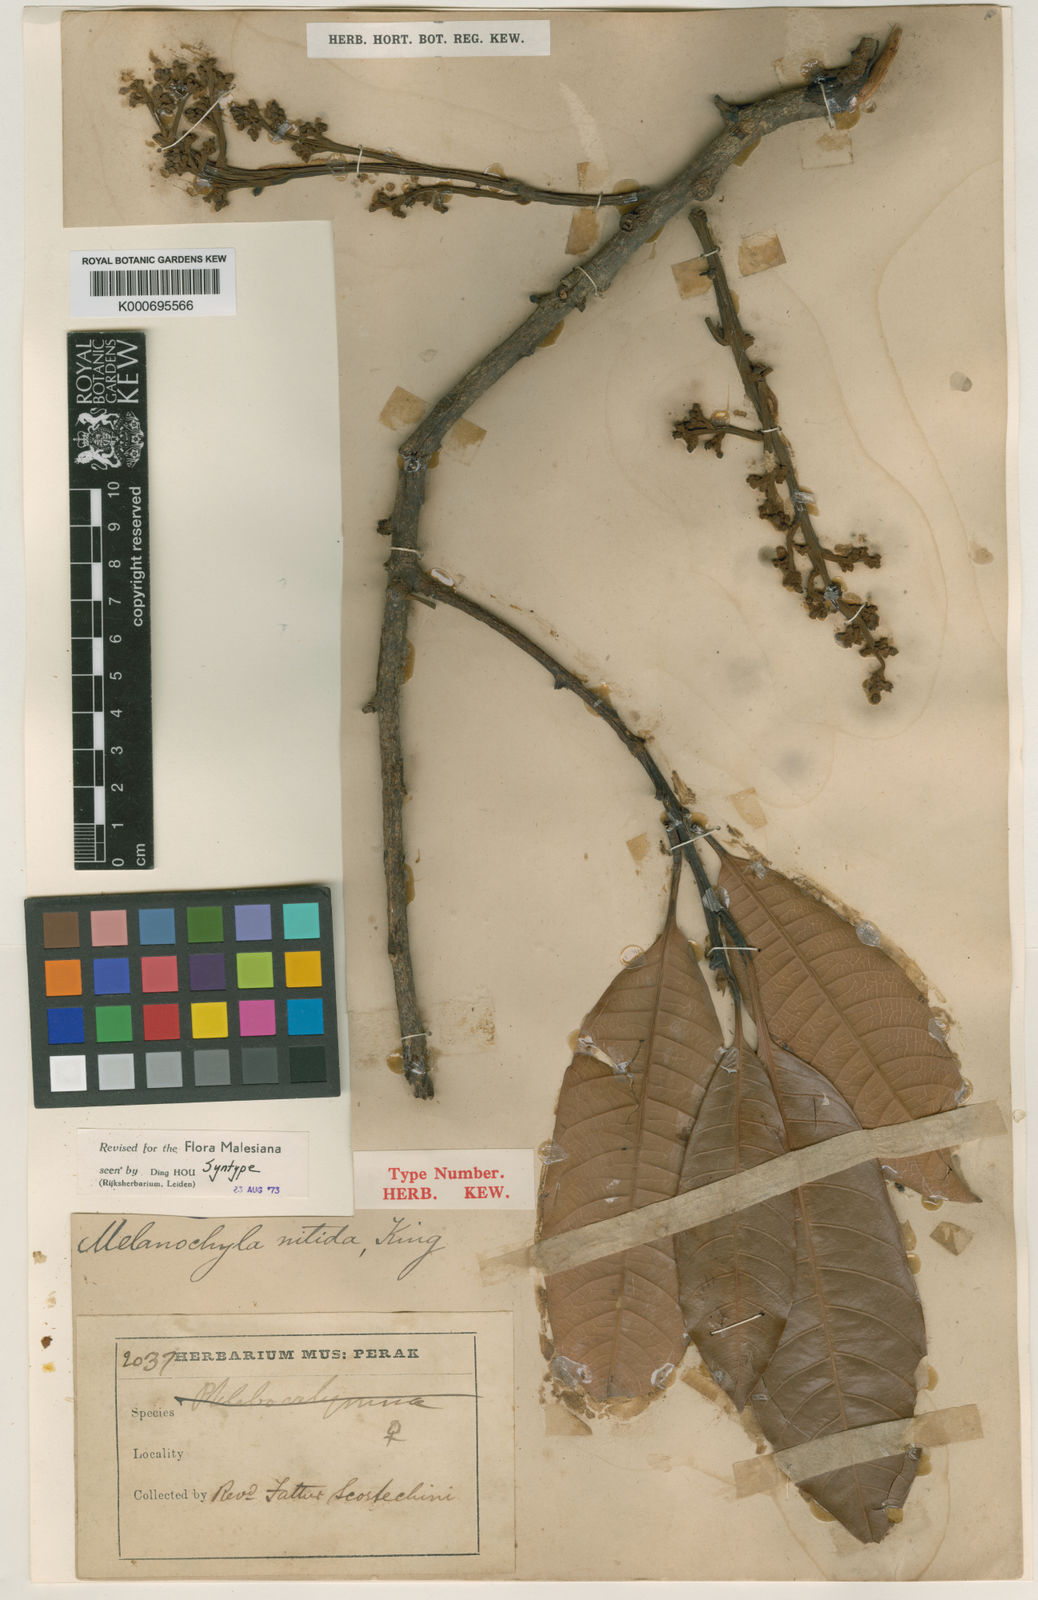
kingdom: Plantae
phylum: Tracheophyta
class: Magnoliopsida
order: Sapindales
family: Anacardiaceae
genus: Melanochyla
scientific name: Melanochyla nitida
